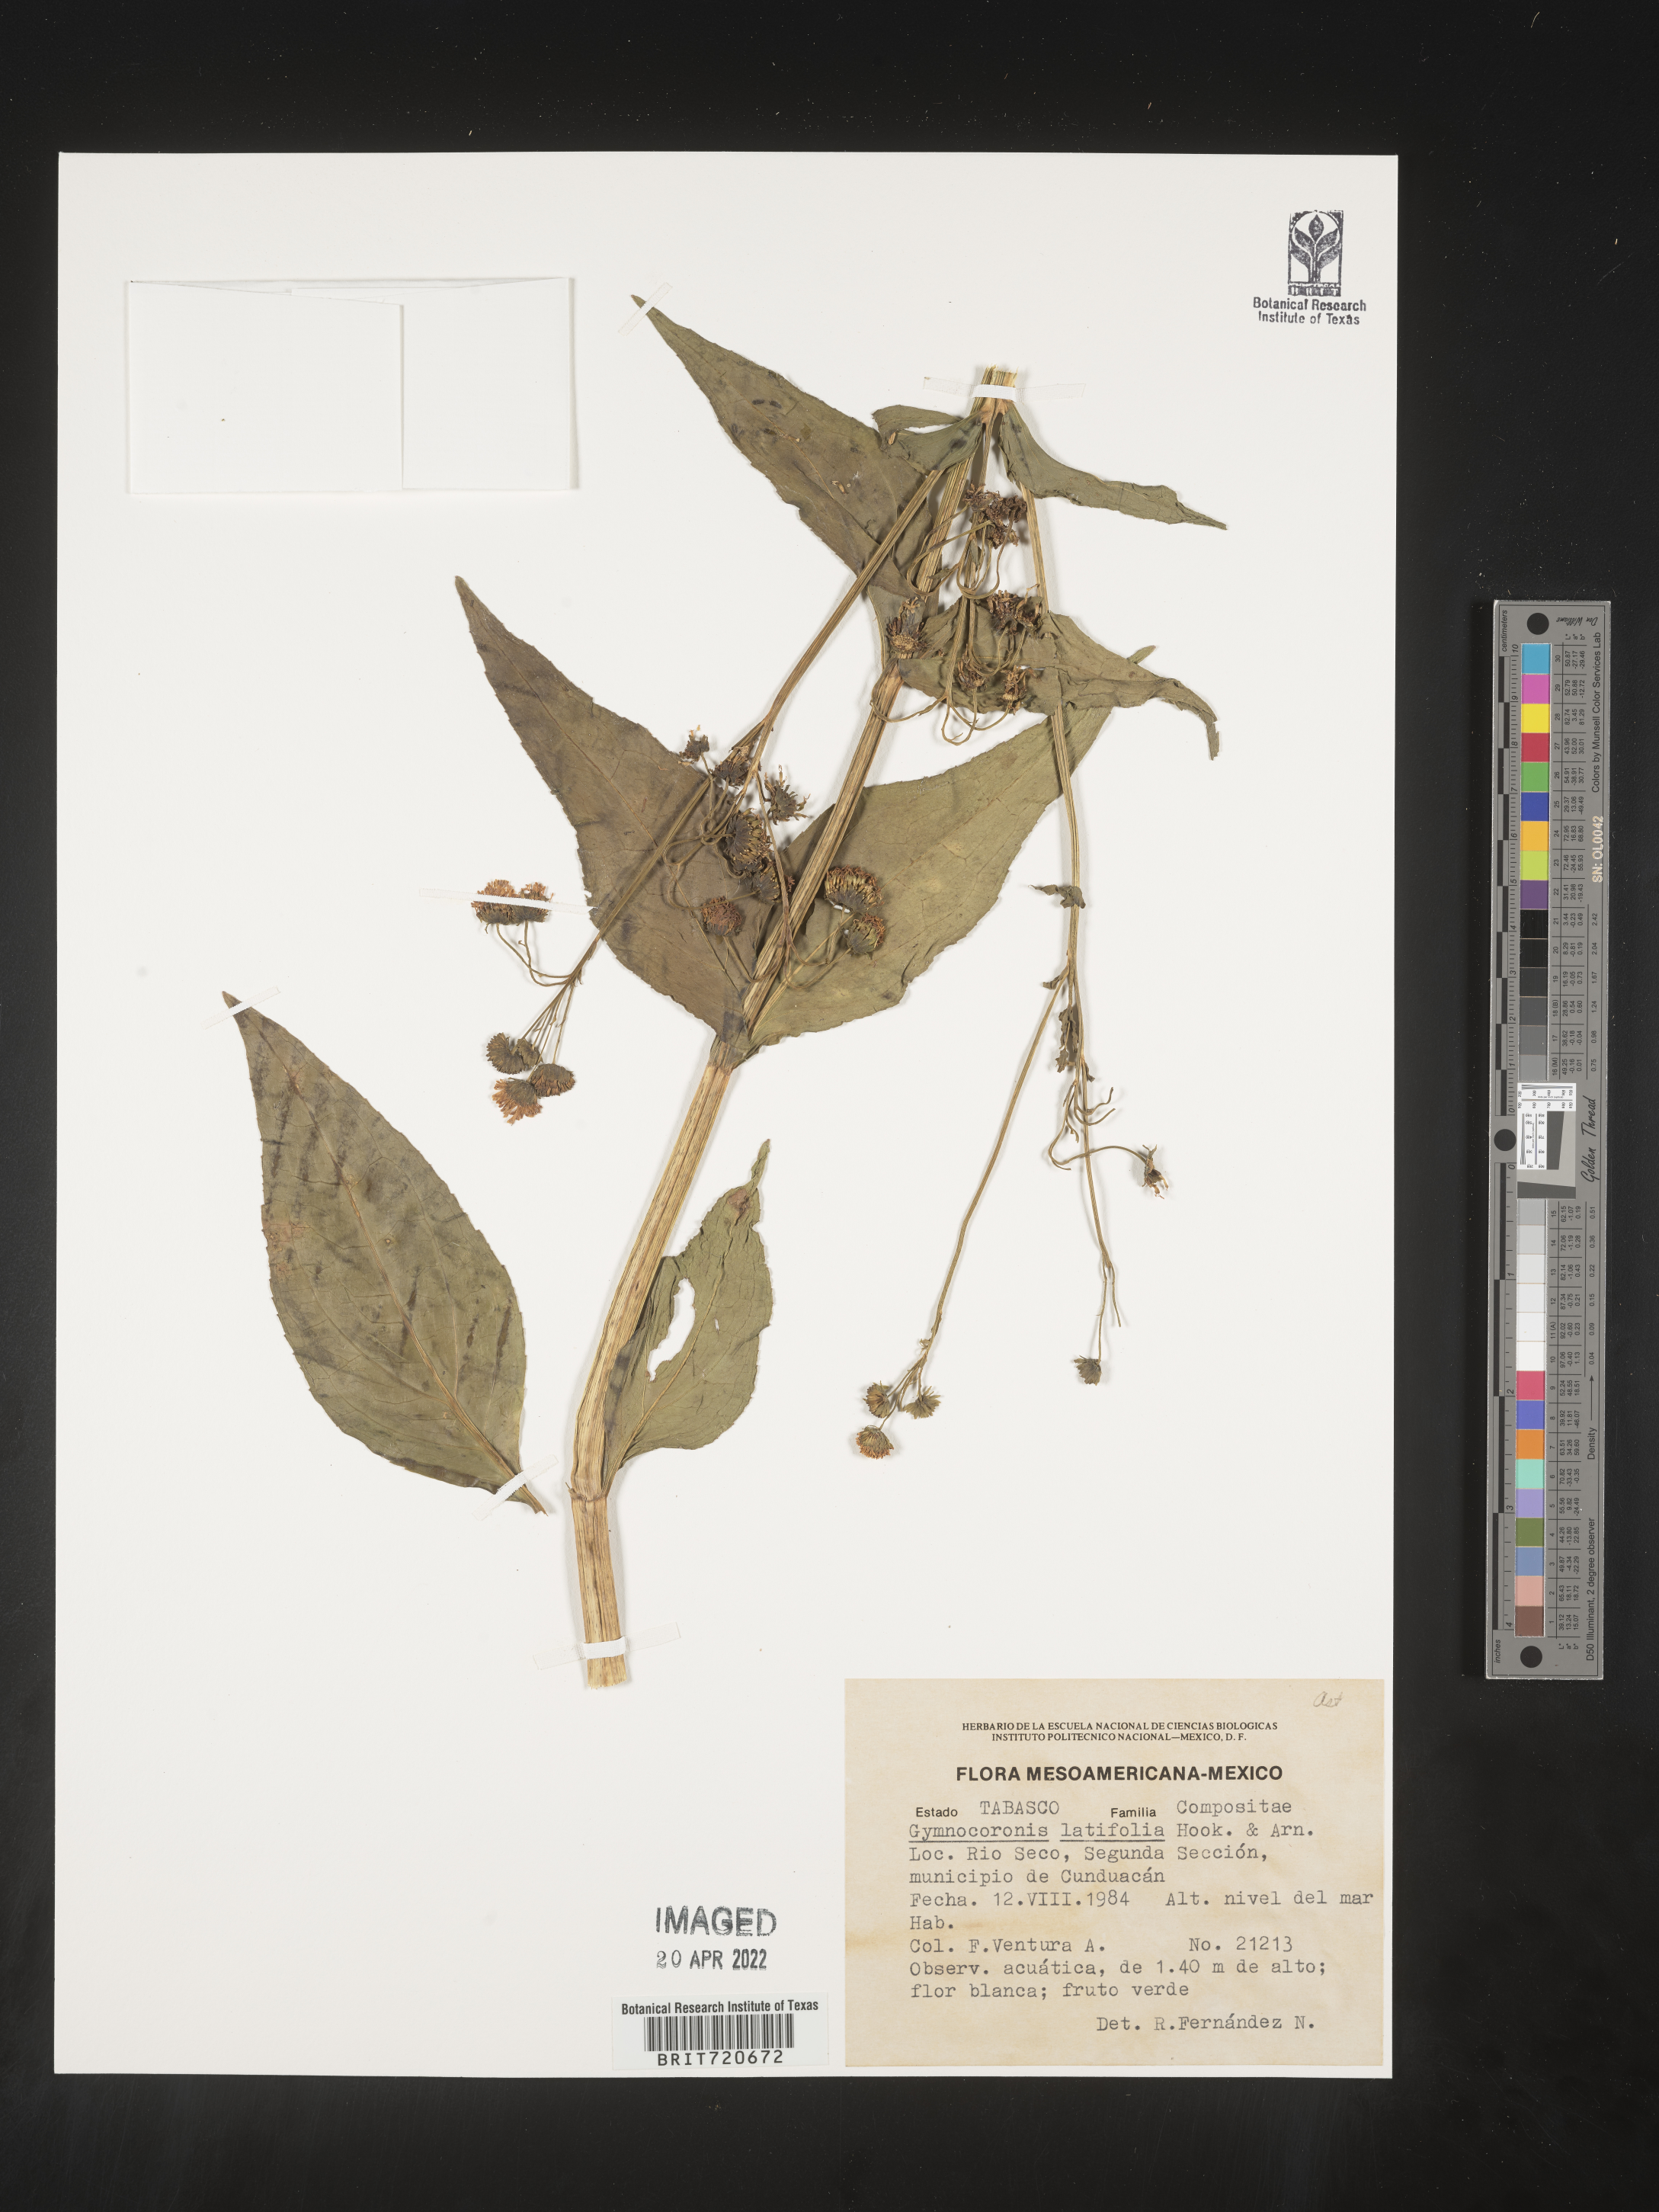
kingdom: Plantae
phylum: Tracheophyta
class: Magnoliopsida
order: Asterales
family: Asteraceae
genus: Gymnocoronis
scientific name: Gymnocoronis latifolia
